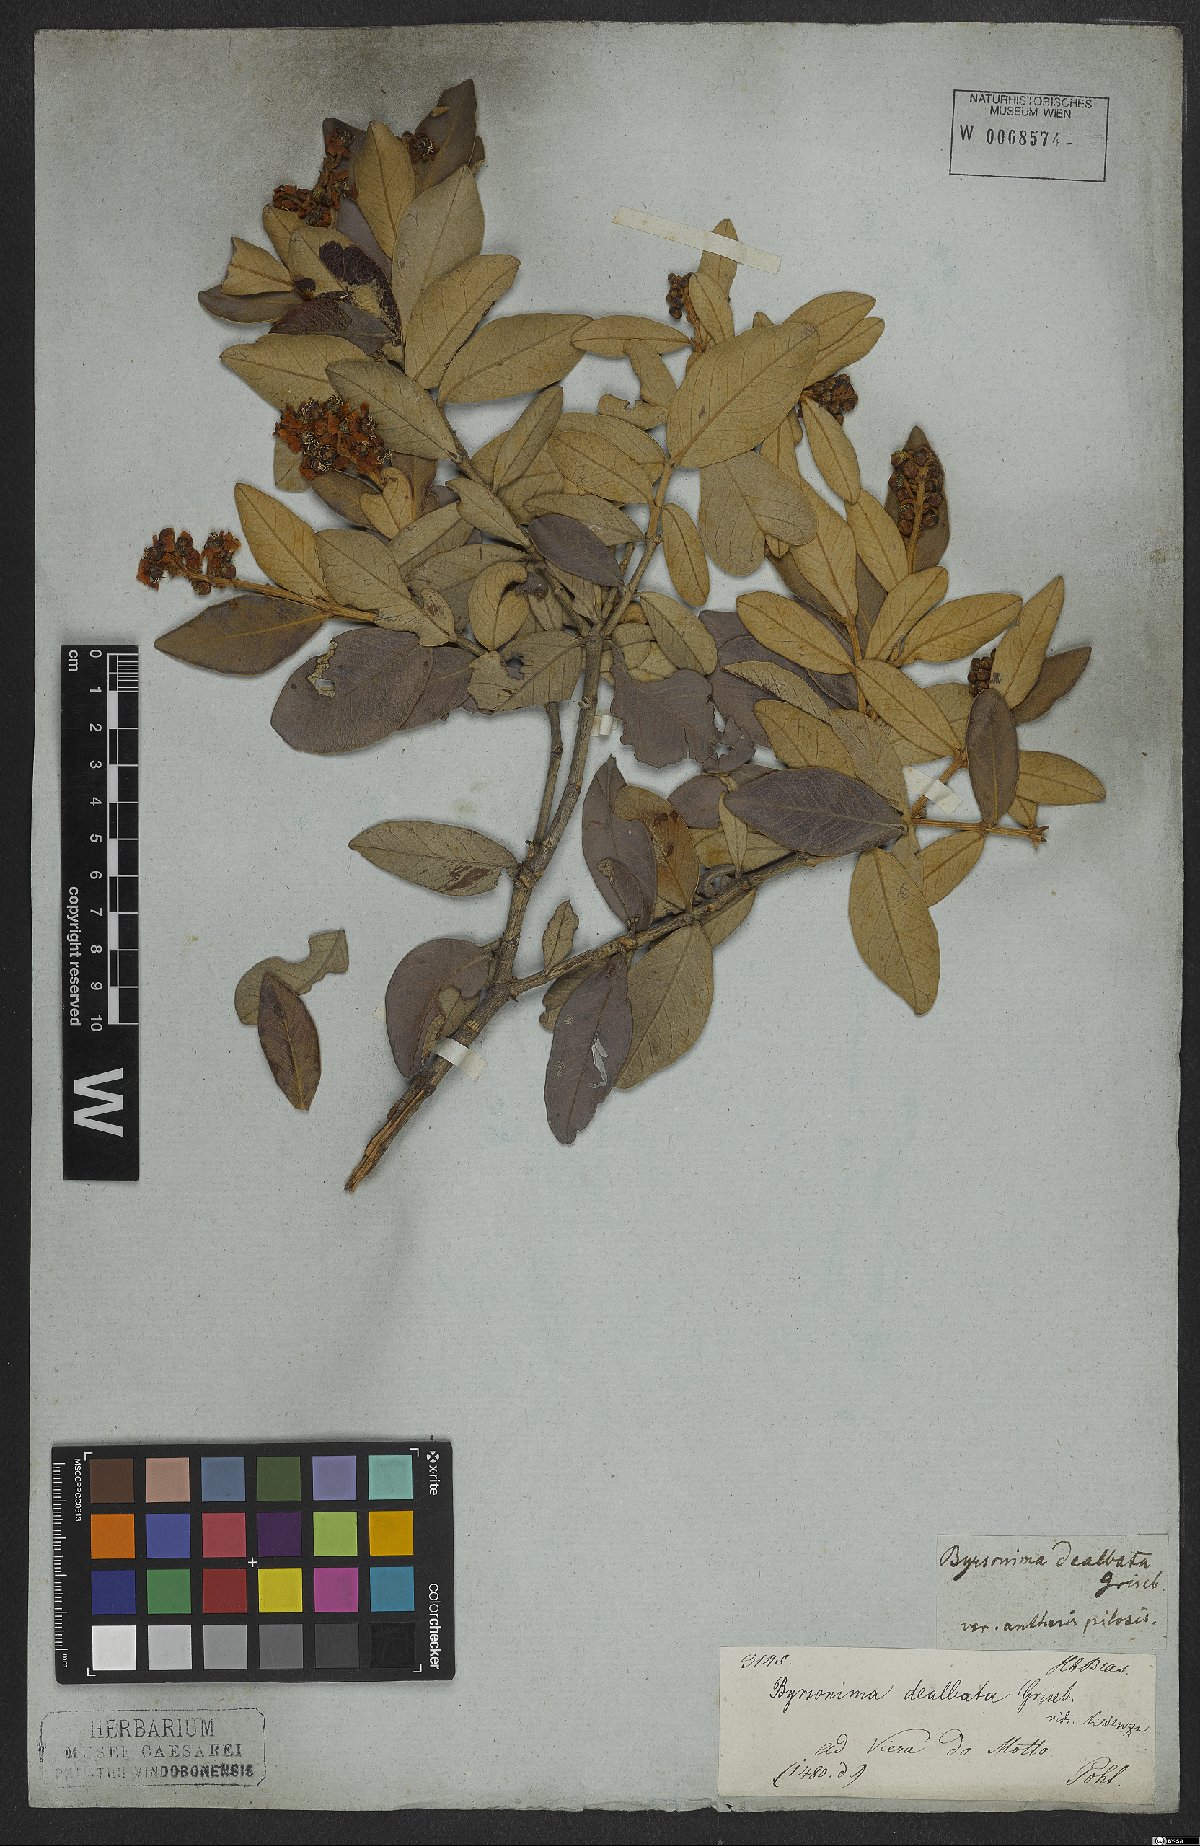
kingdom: Plantae
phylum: Tracheophyta
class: Magnoliopsida
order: Malpighiales
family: Malpighiaceae
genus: Byrsonima
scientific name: Byrsonima dealbata
